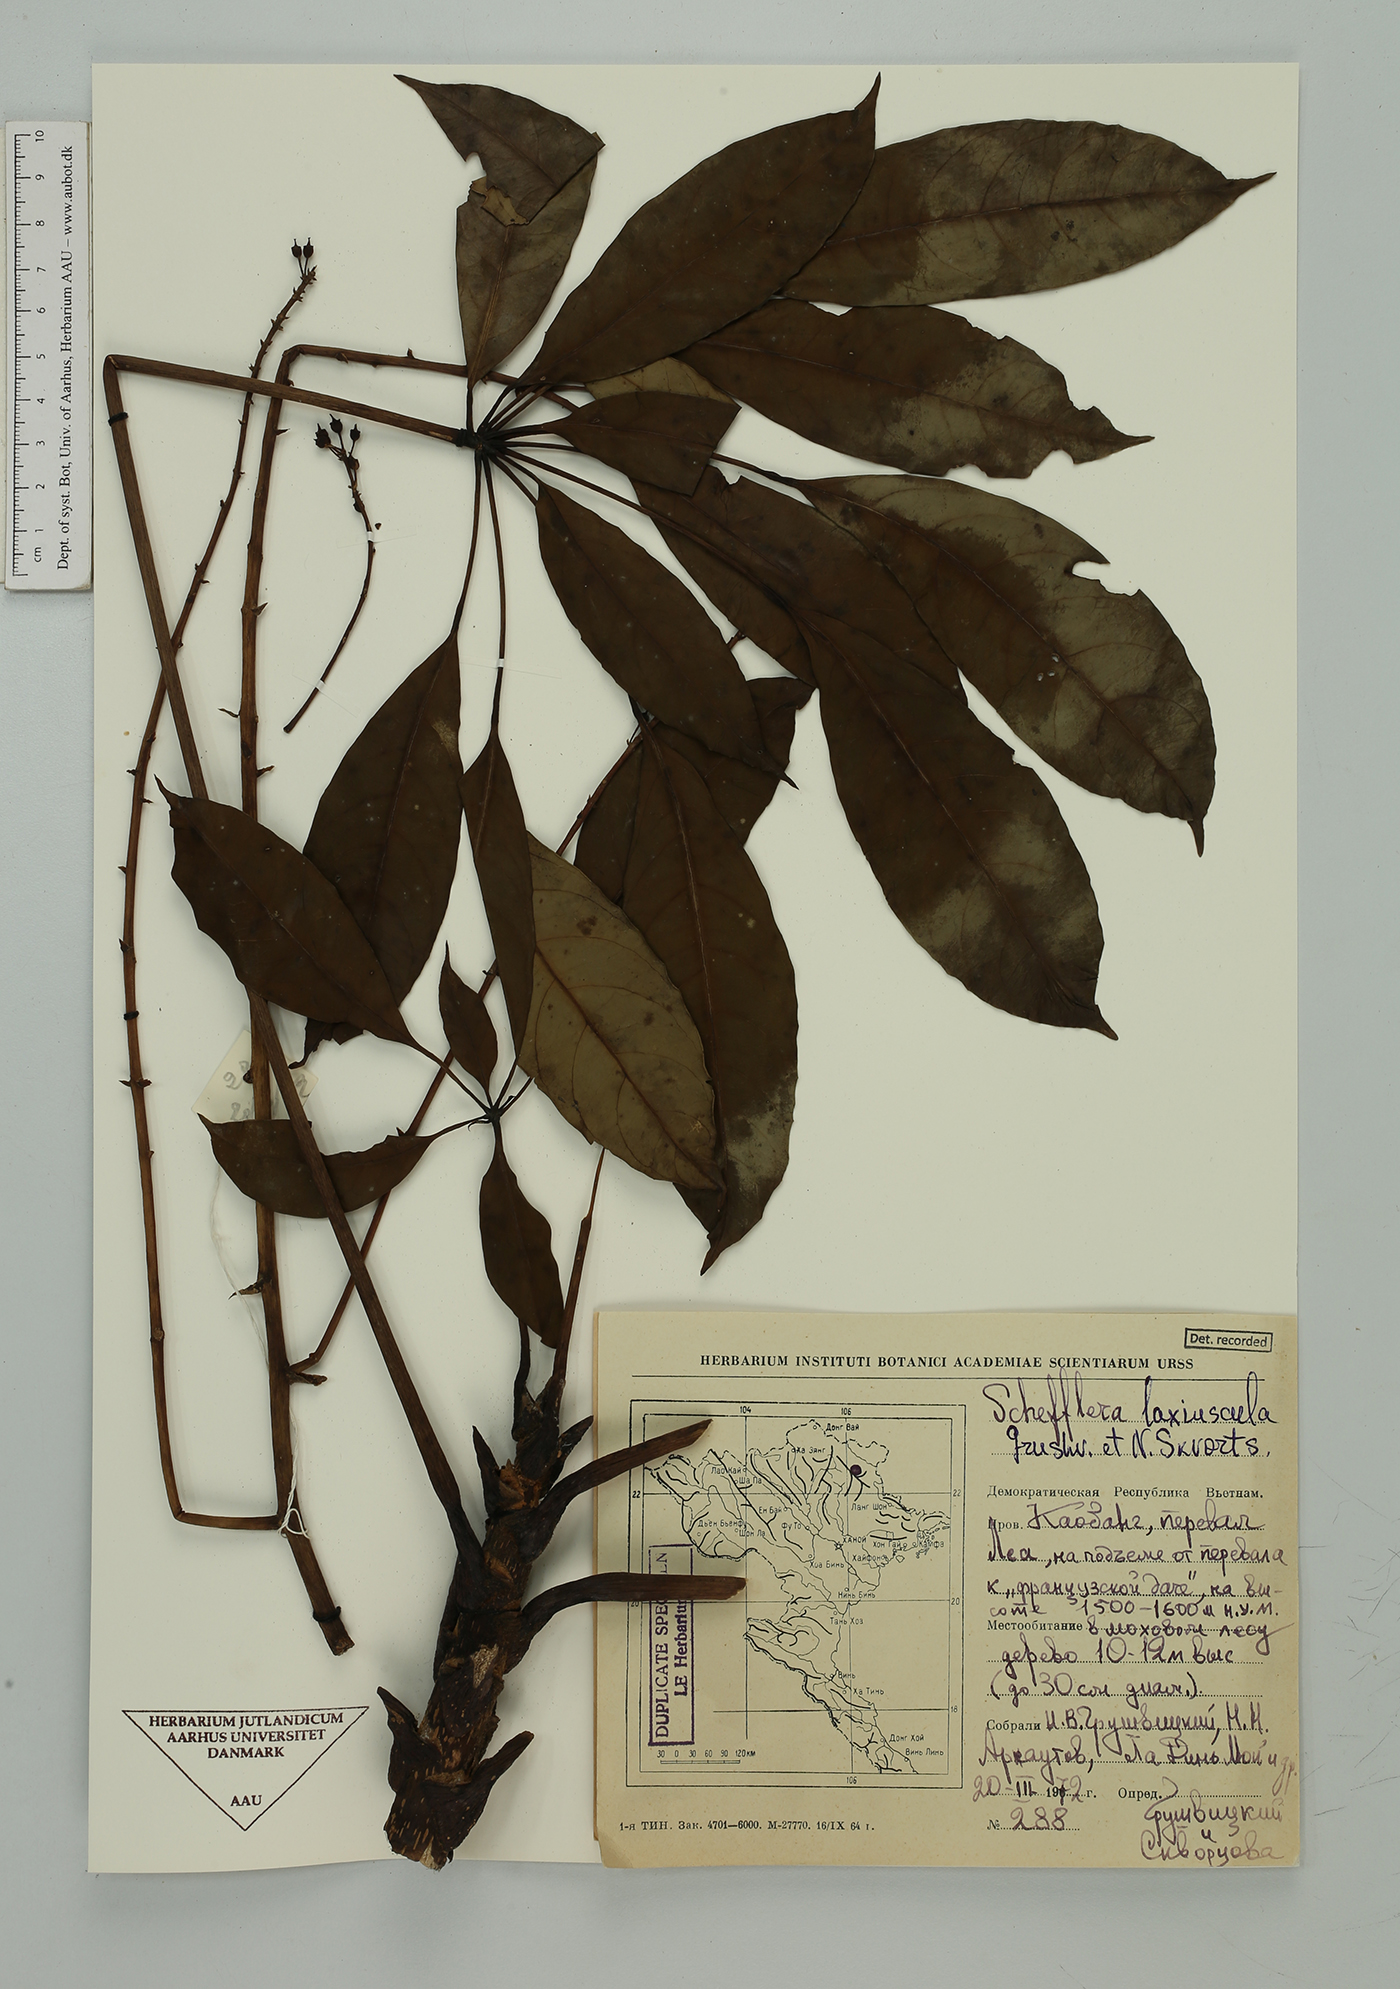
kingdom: Plantae
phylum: Tracheophyta
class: Magnoliopsida
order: Apiales
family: Araliaceae
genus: Heptapleurum
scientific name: Heptapleurum laxiusculum
